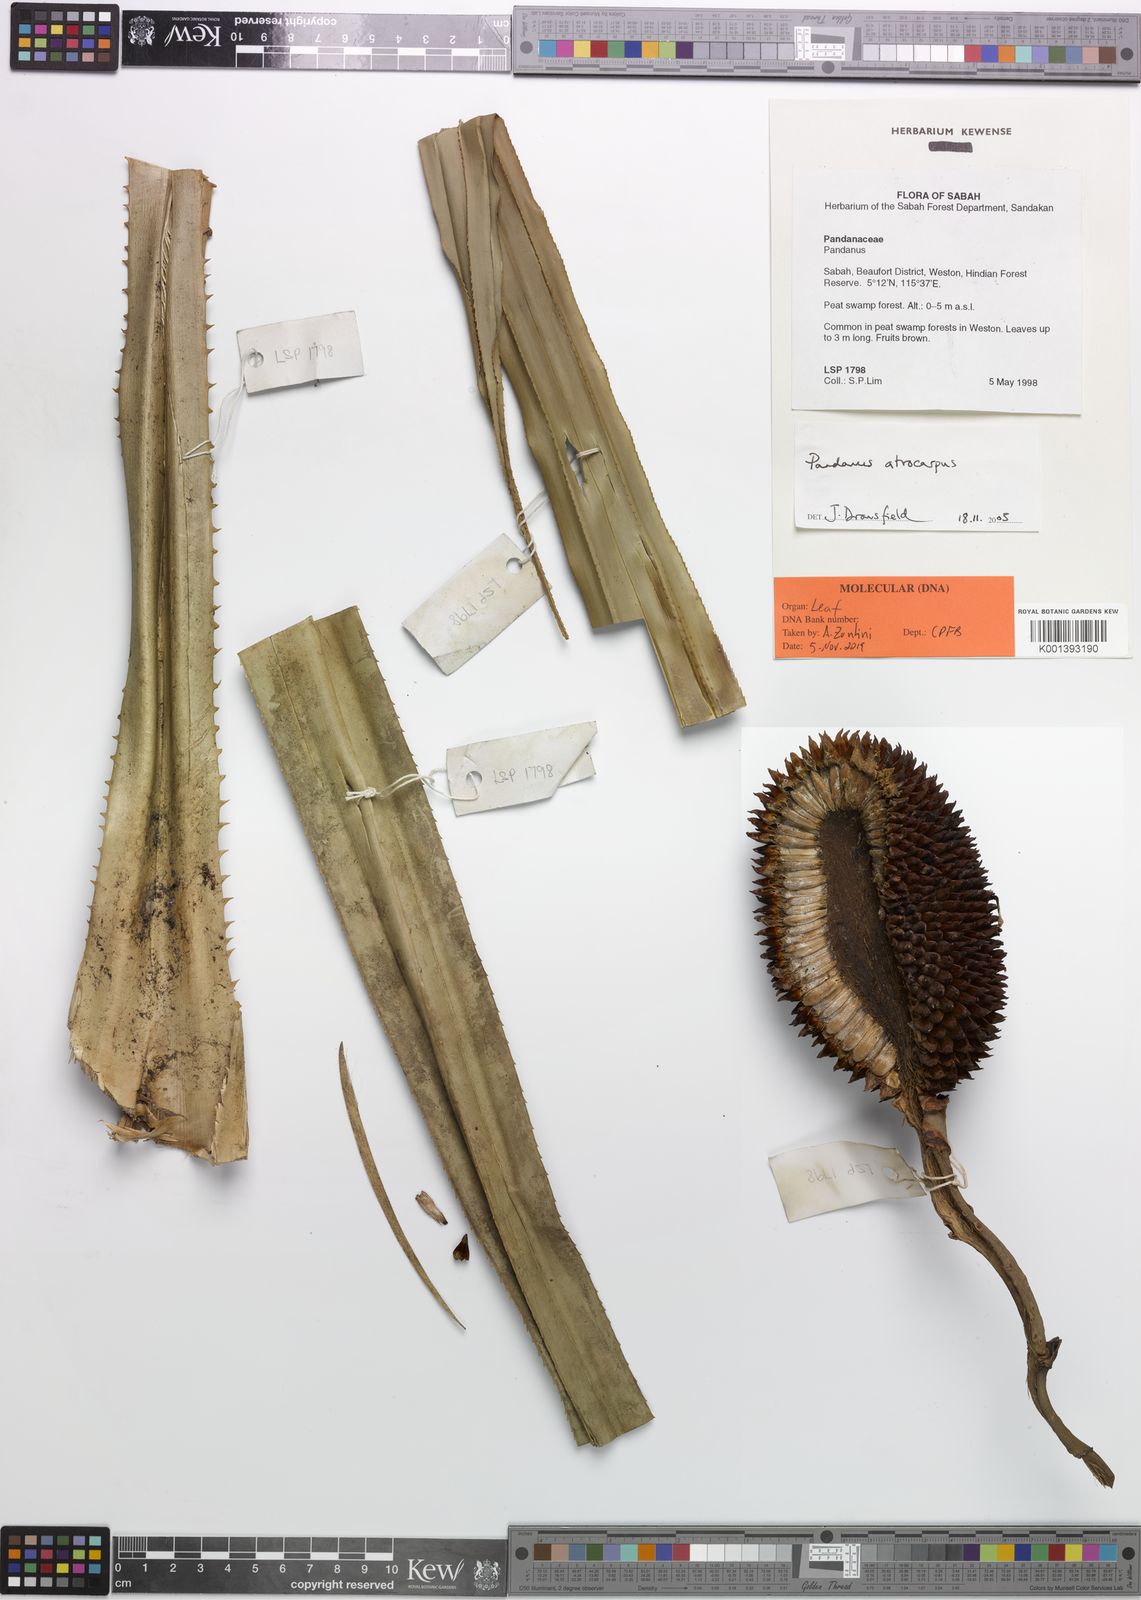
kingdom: Plantae
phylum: Tracheophyta
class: Liliopsida
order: Pandanales
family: Pandanaceae
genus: Benstonea
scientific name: Benstonea atrocarpa
